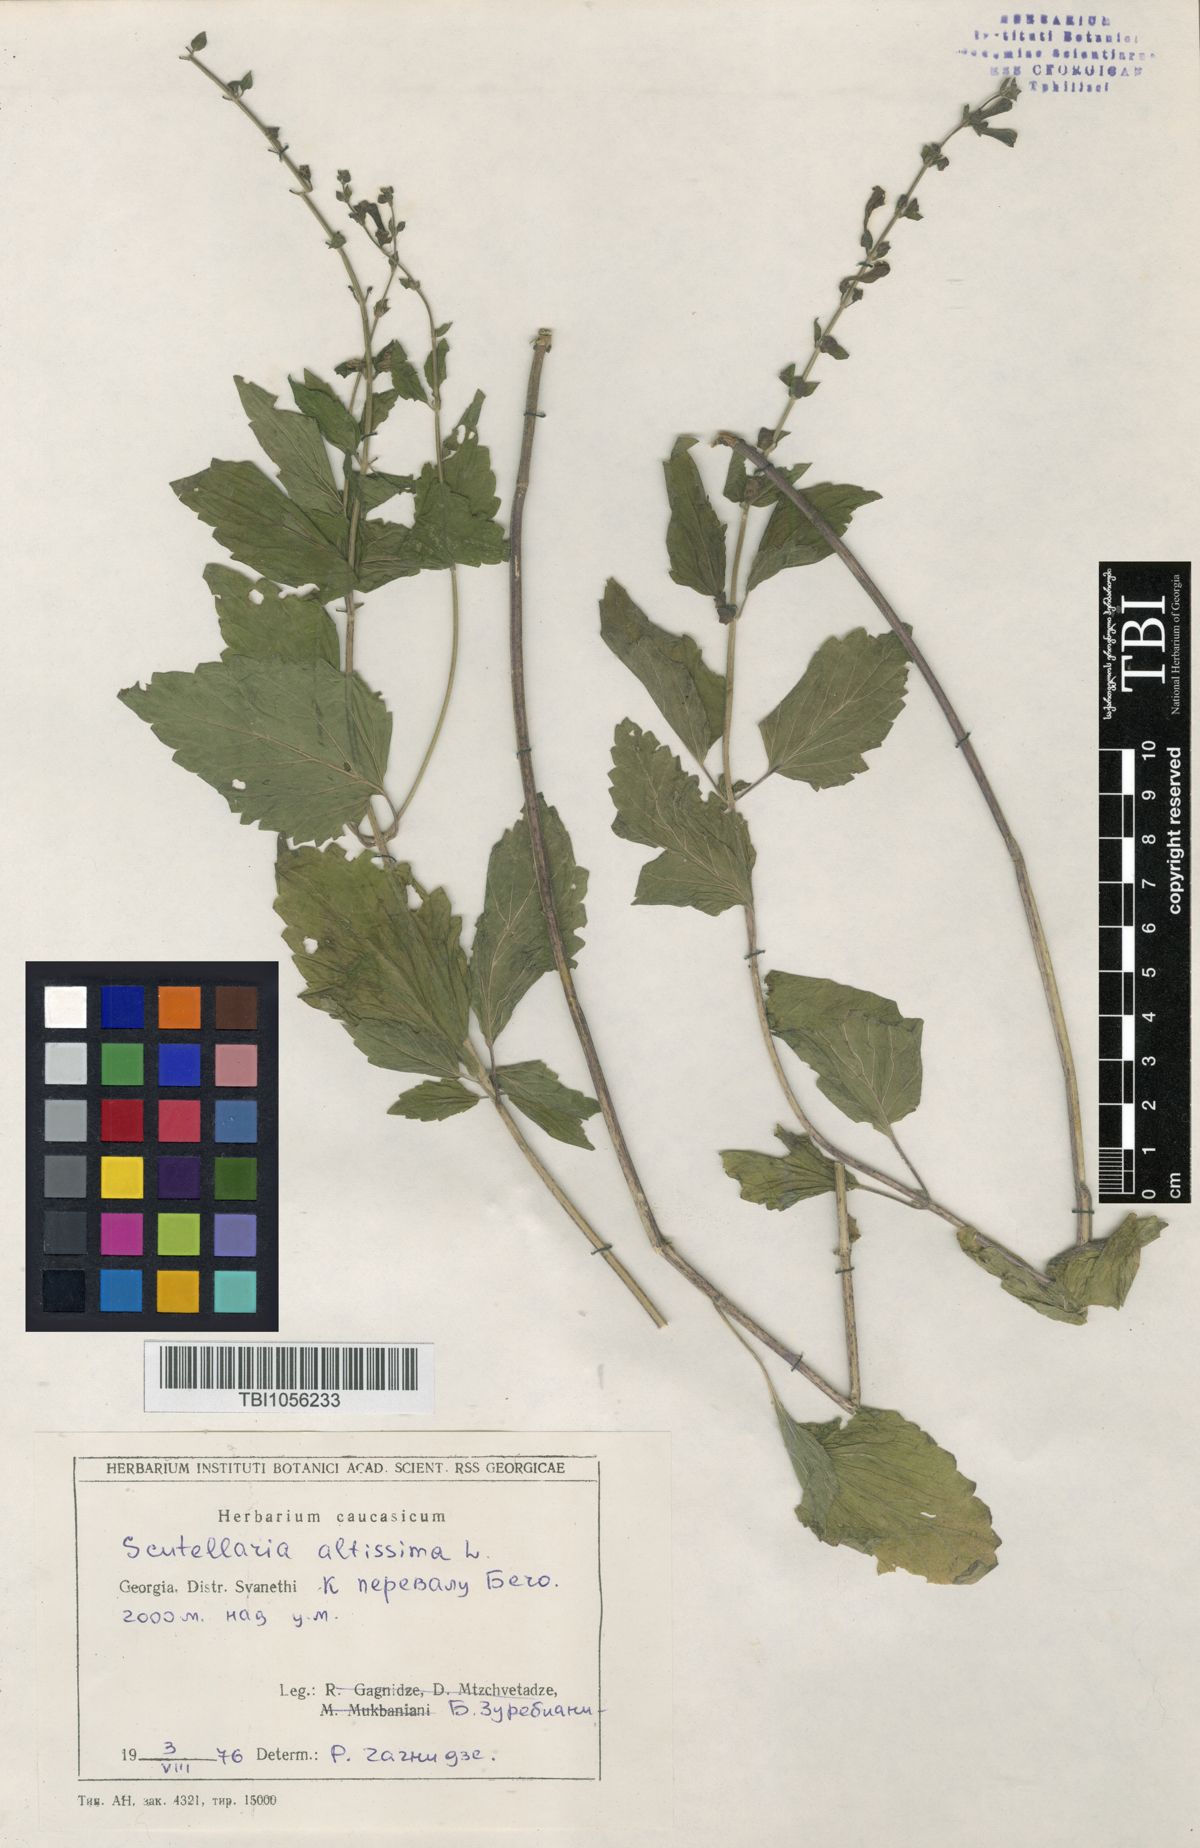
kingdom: Plantae
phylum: Tracheophyta
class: Magnoliopsida
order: Lamiales
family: Lamiaceae
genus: Scutellaria
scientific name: Scutellaria altissima
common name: Somerset skullcap
